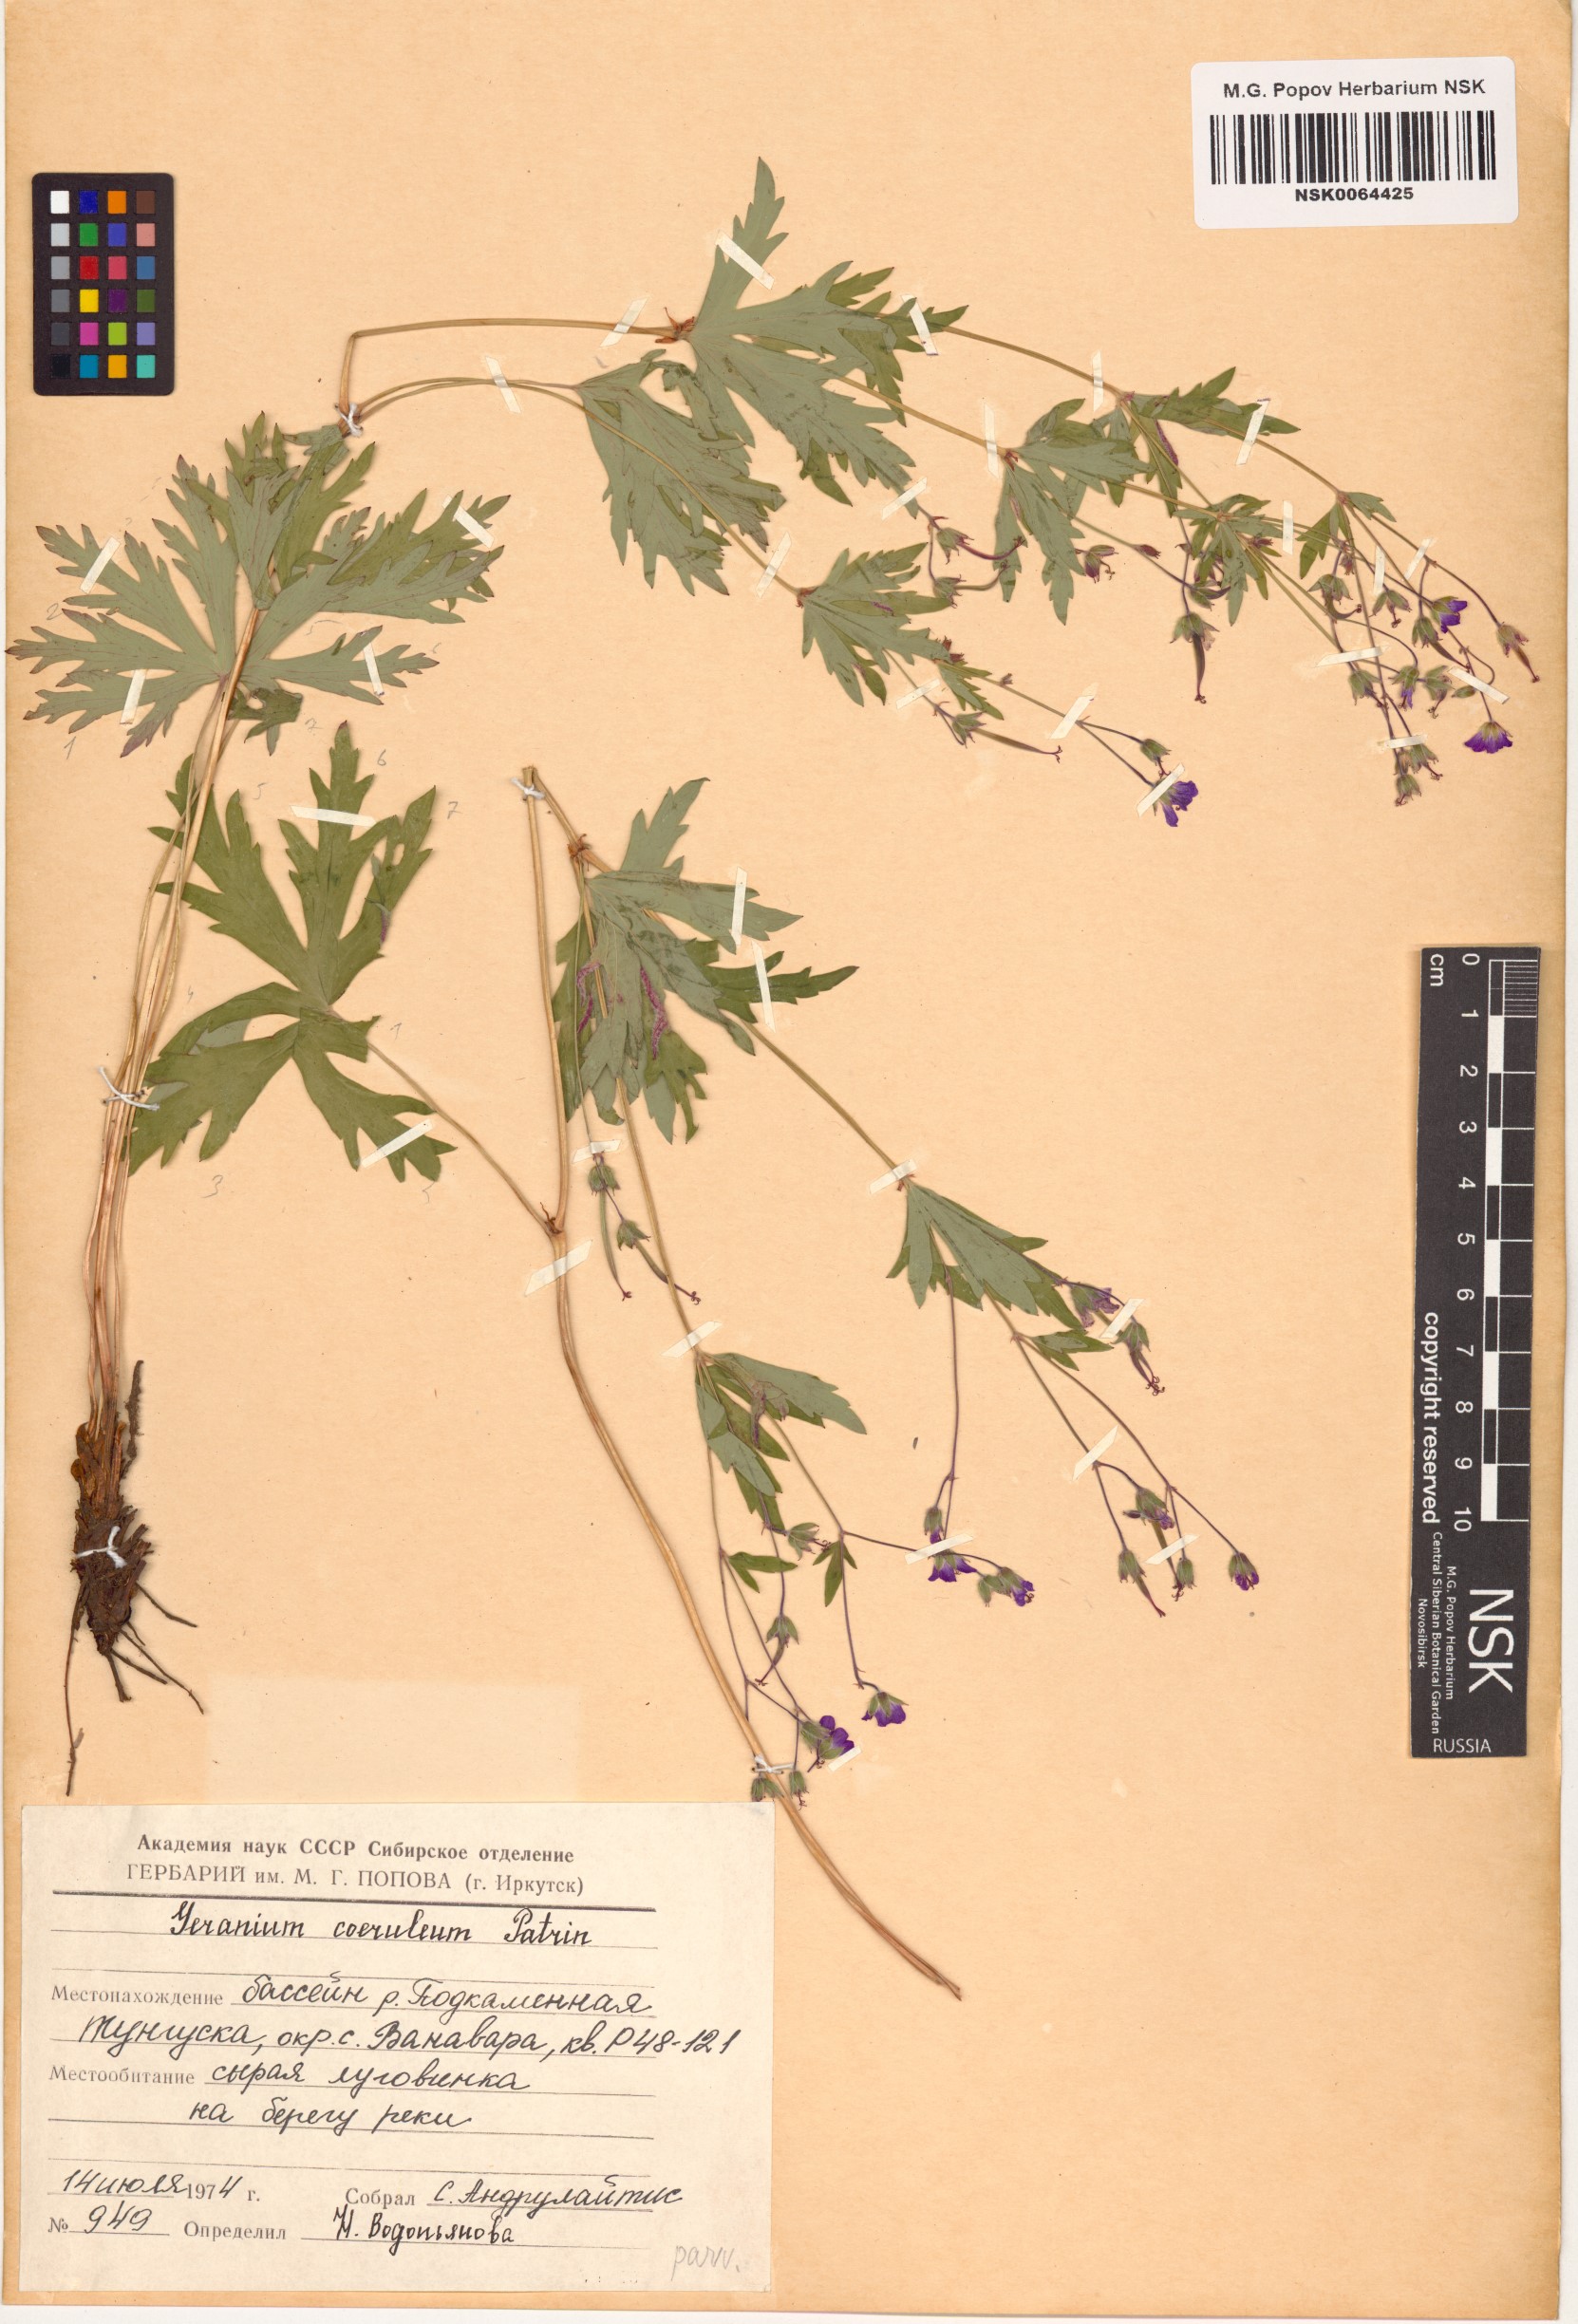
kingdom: Plantae
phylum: Tracheophyta
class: Magnoliopsida
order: Geraniales
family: Geraniaceae
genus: Geranium
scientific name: Geranium pseudosibiricum
